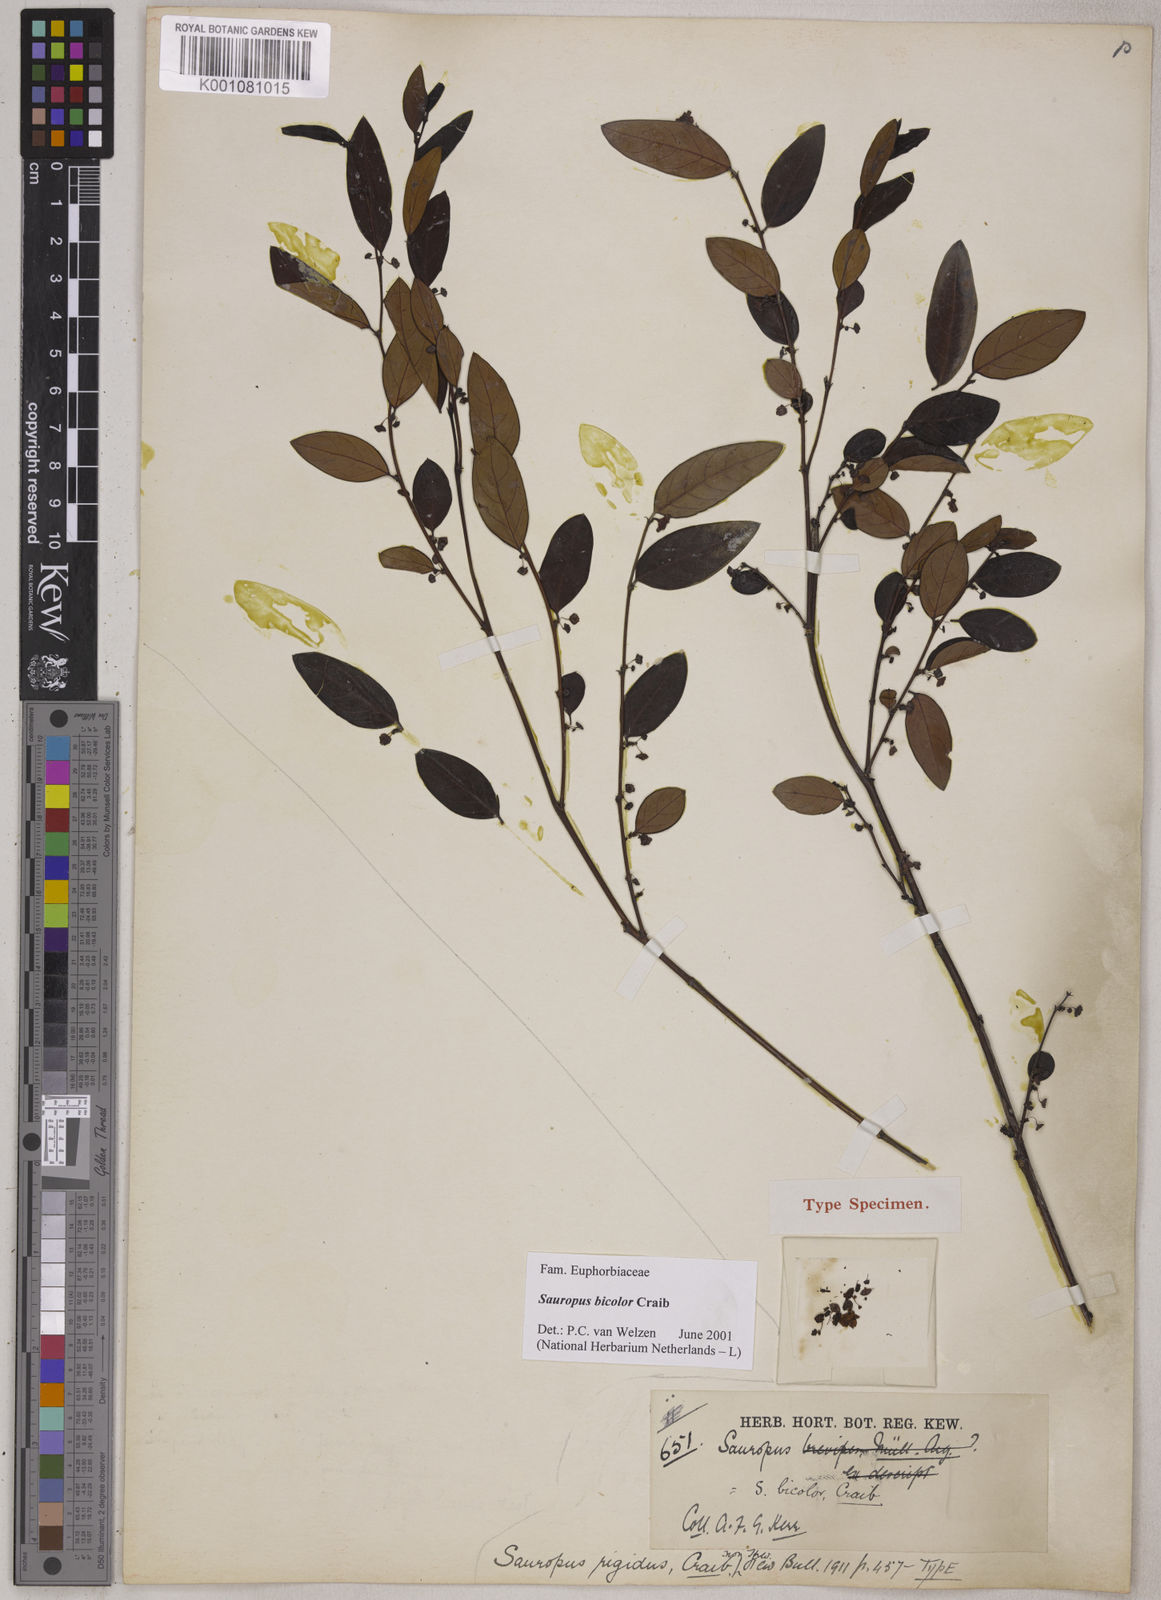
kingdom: Plantae
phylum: Tracheophyta
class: Magnoliopsida
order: Malpighiales
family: Phyllanthaceae
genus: Breynia
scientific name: Breynia bicolor
